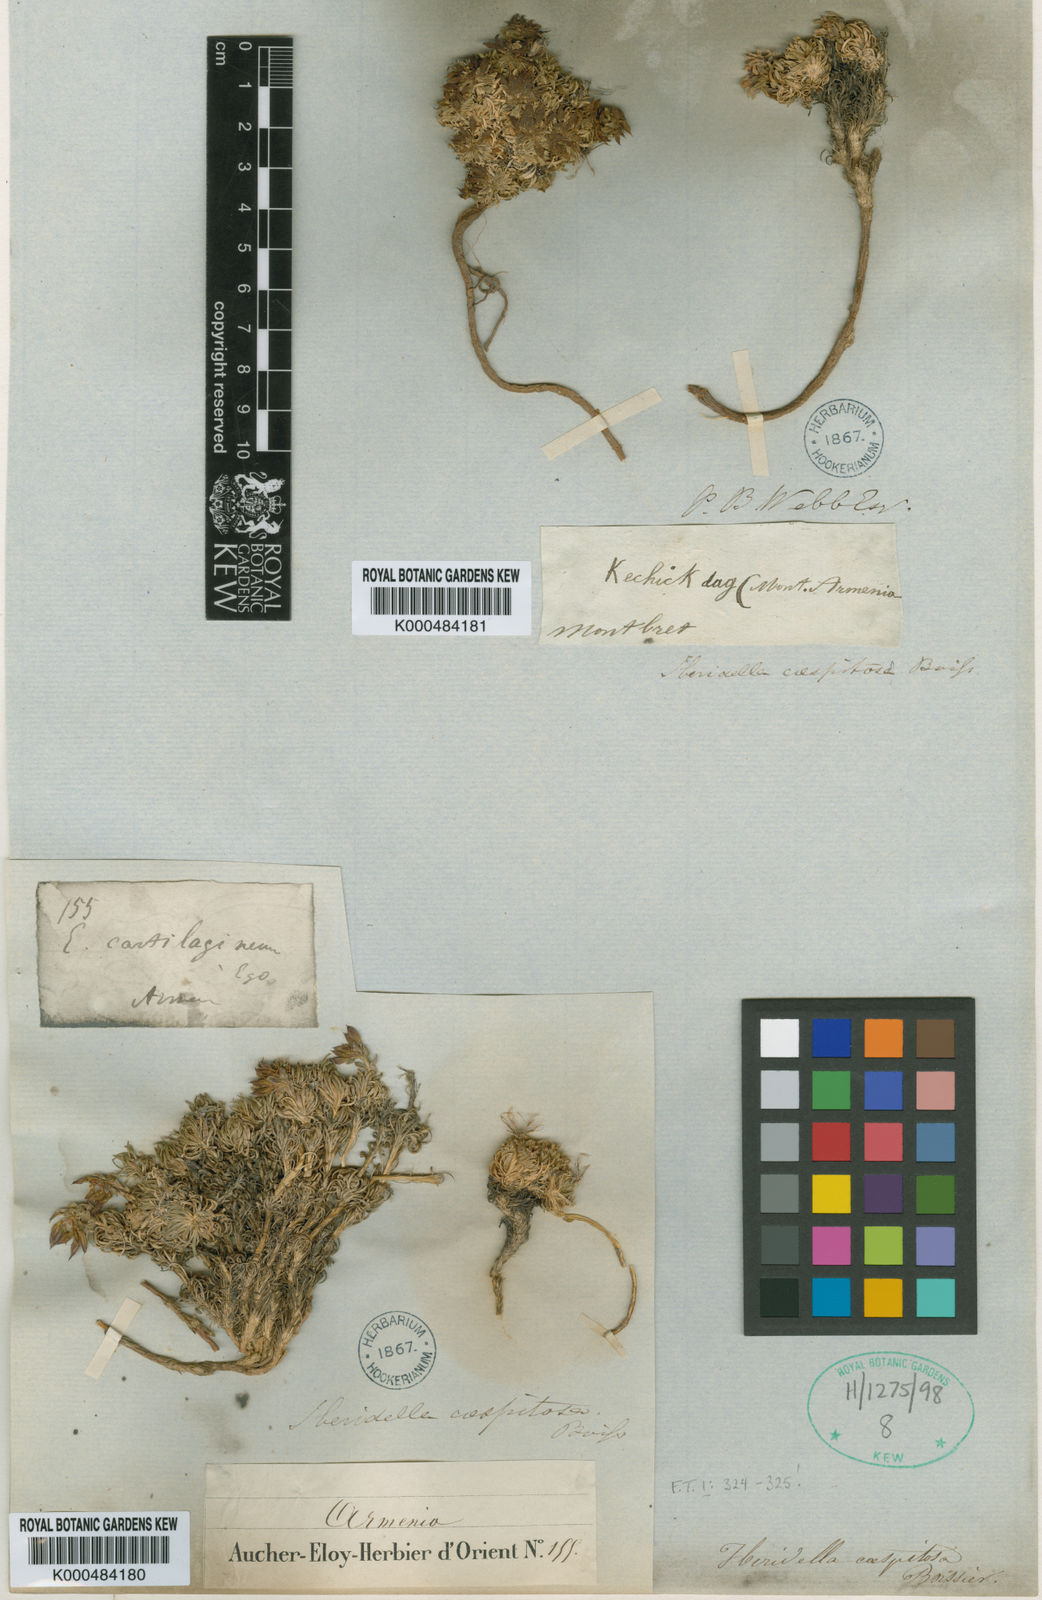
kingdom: Plantae
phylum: Tracheophyta
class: Magnoliopsida
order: Brassicales
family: Brassicaceae
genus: Noccaea
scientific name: Noccaea caespitosa
